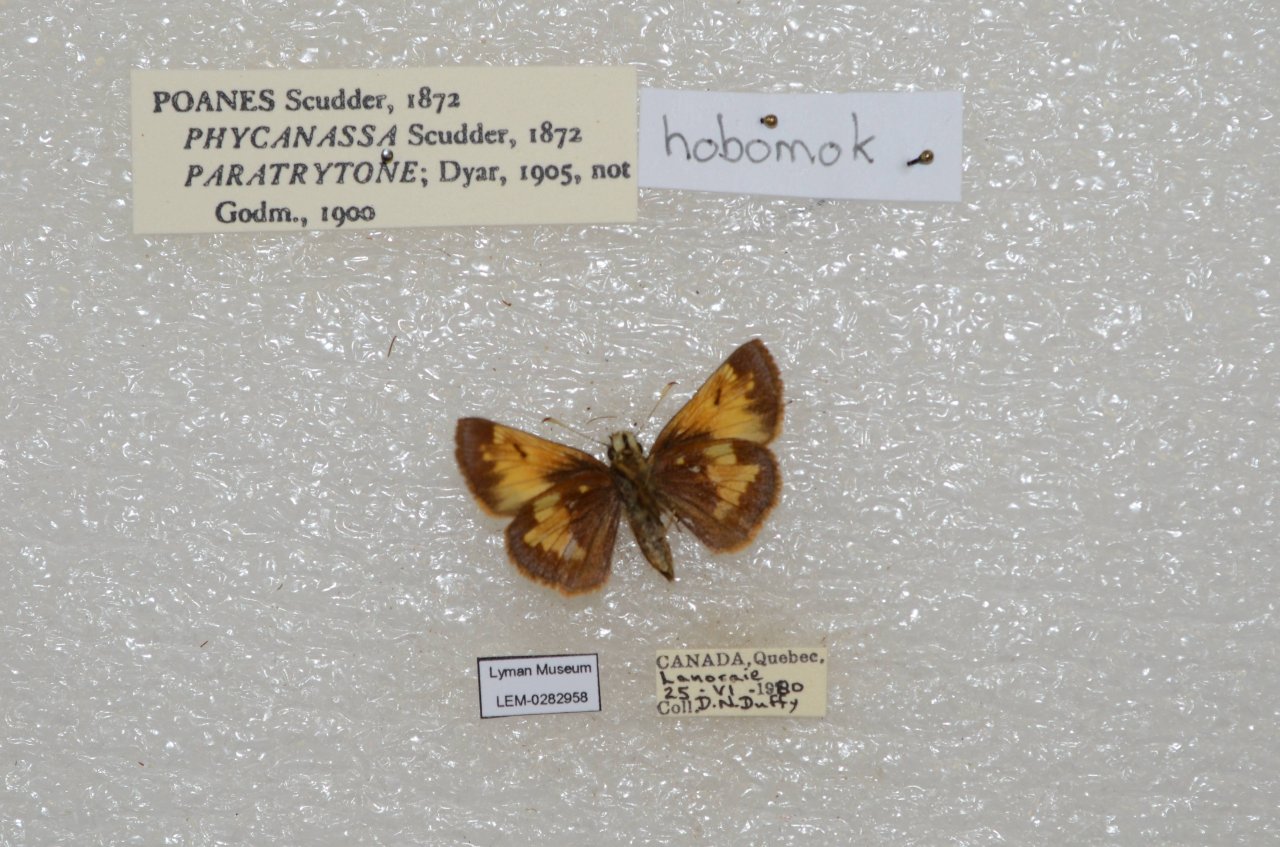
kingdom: Animalia
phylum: Arthropoda
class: Insecta
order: Lepidoptera
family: Hesperiidae
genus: Lon
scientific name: Lon hobomok
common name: Hobomok Skipper
